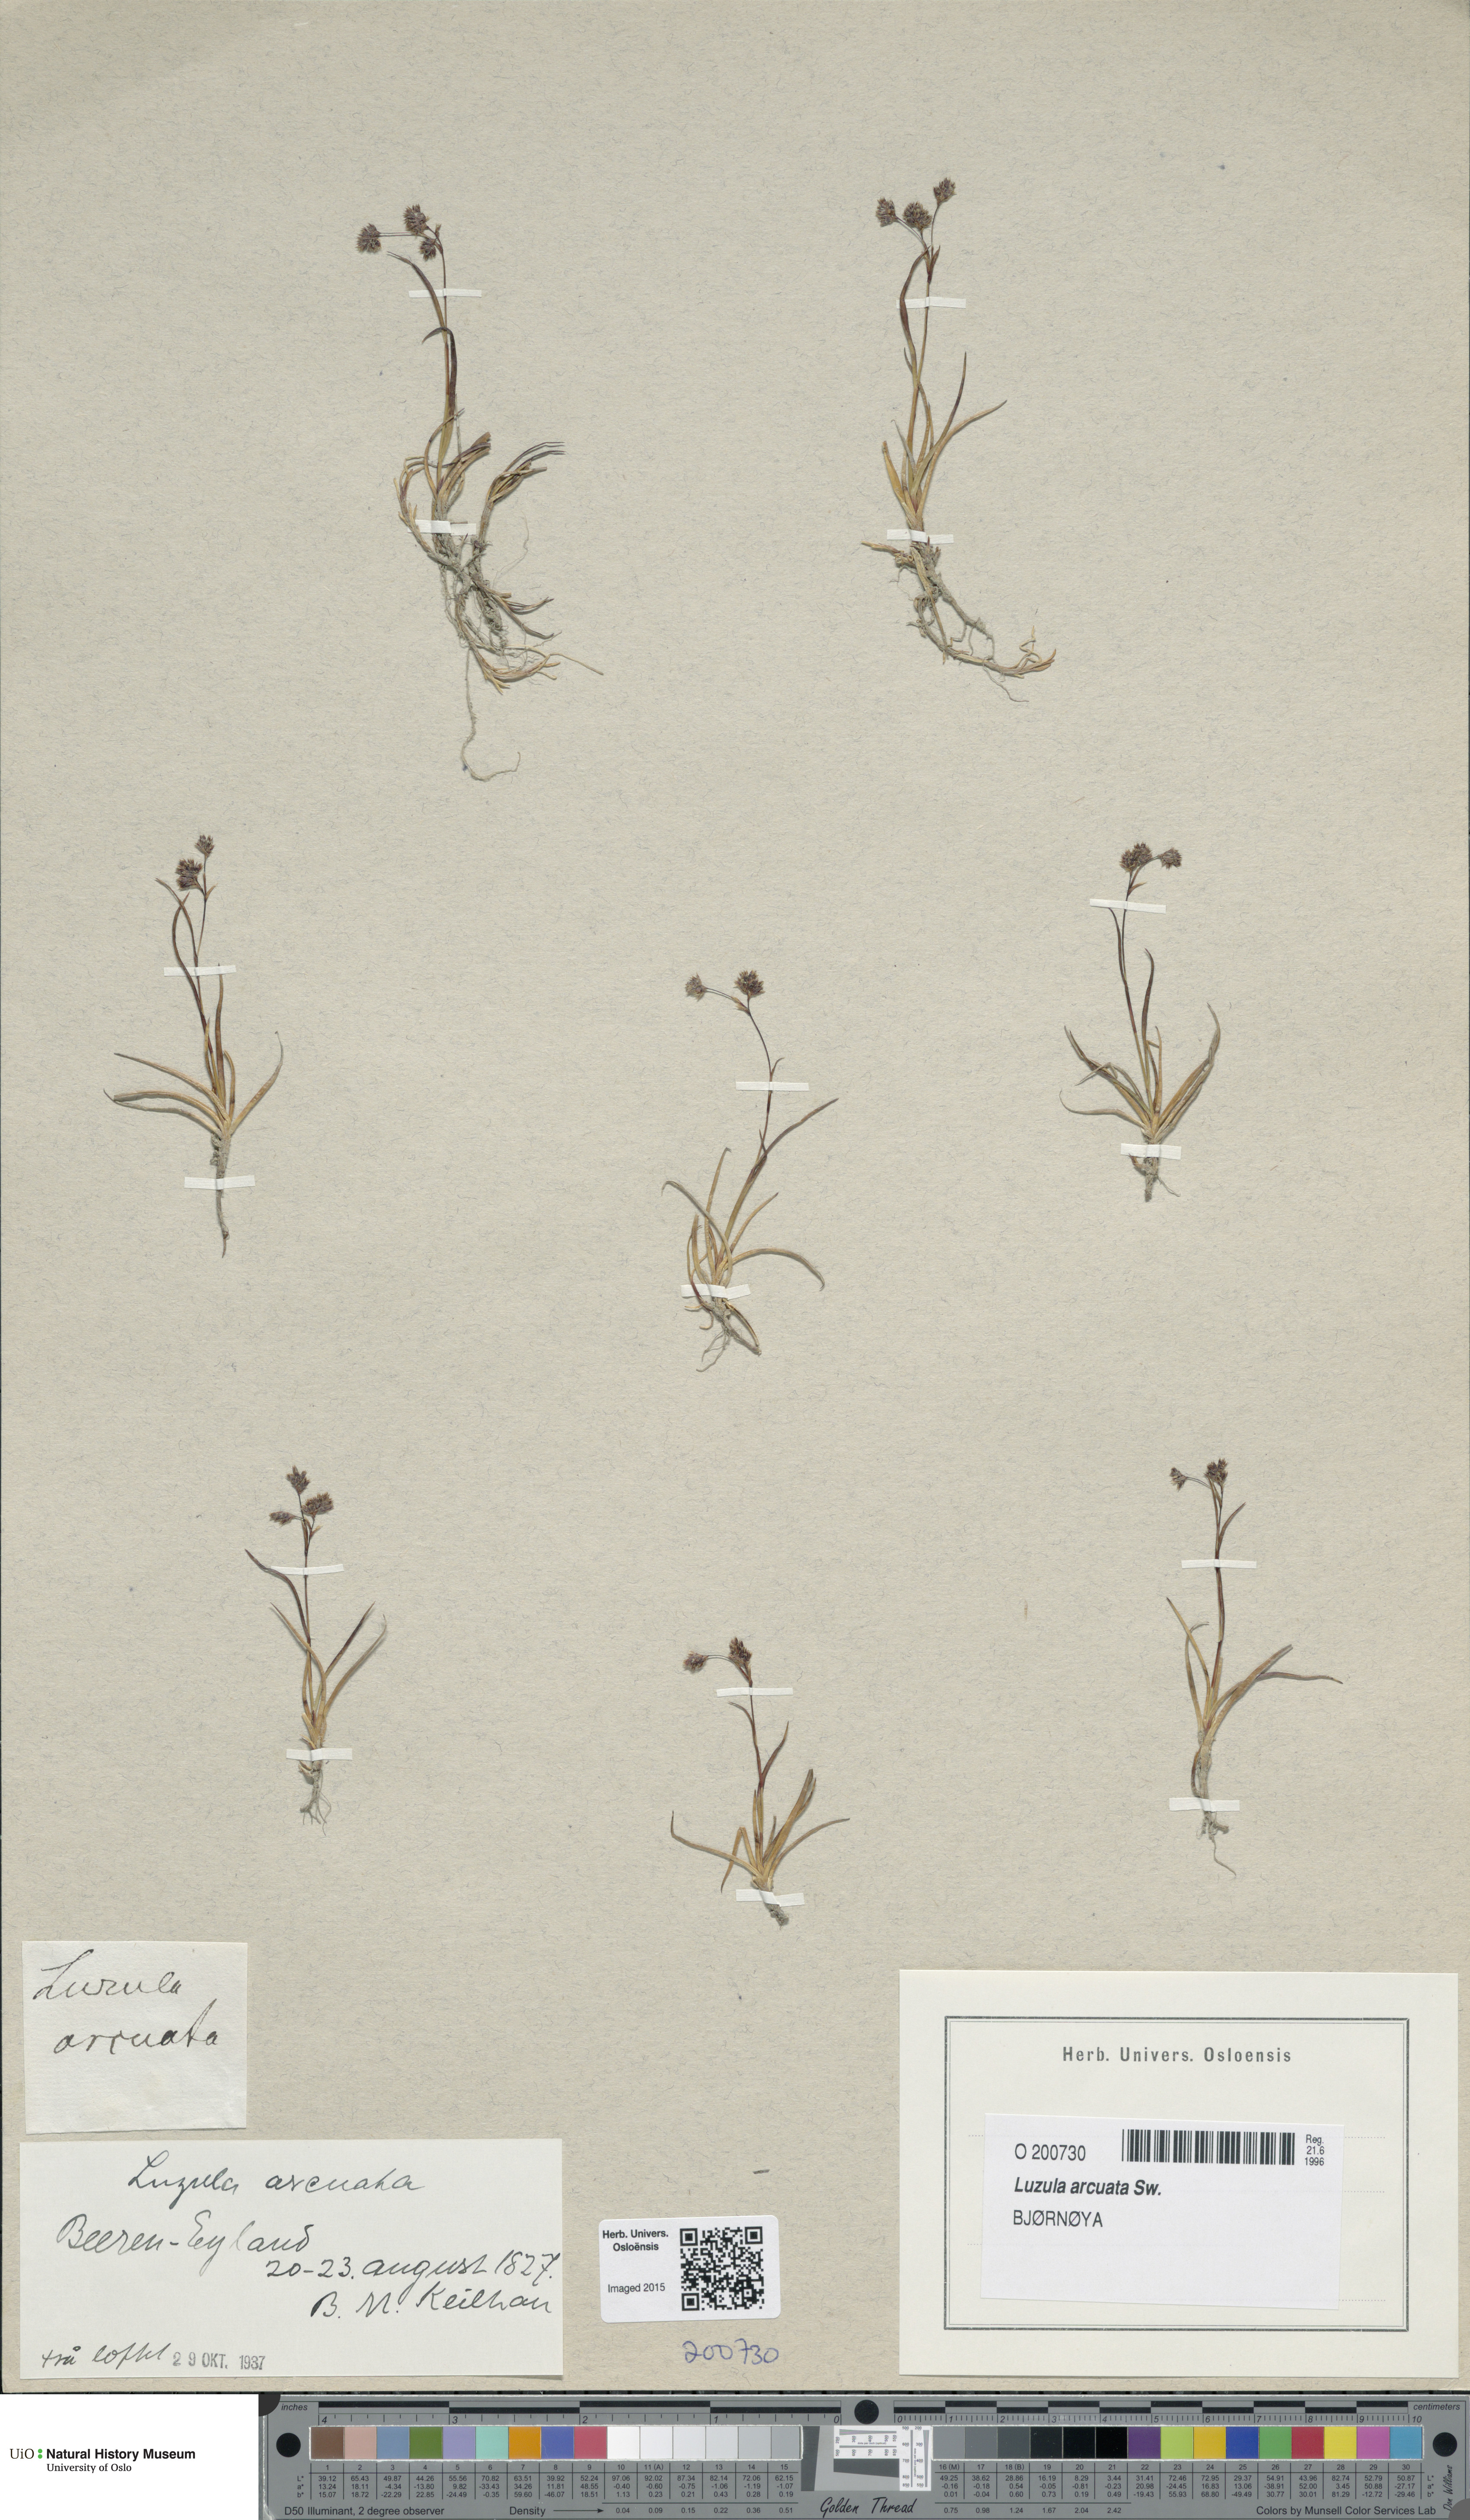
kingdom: Plantae
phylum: Tracheophyta
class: Liliopsida
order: Poales
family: Juncaceae
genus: Luzula
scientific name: Luzula arcuata
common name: Curved wood-rush
